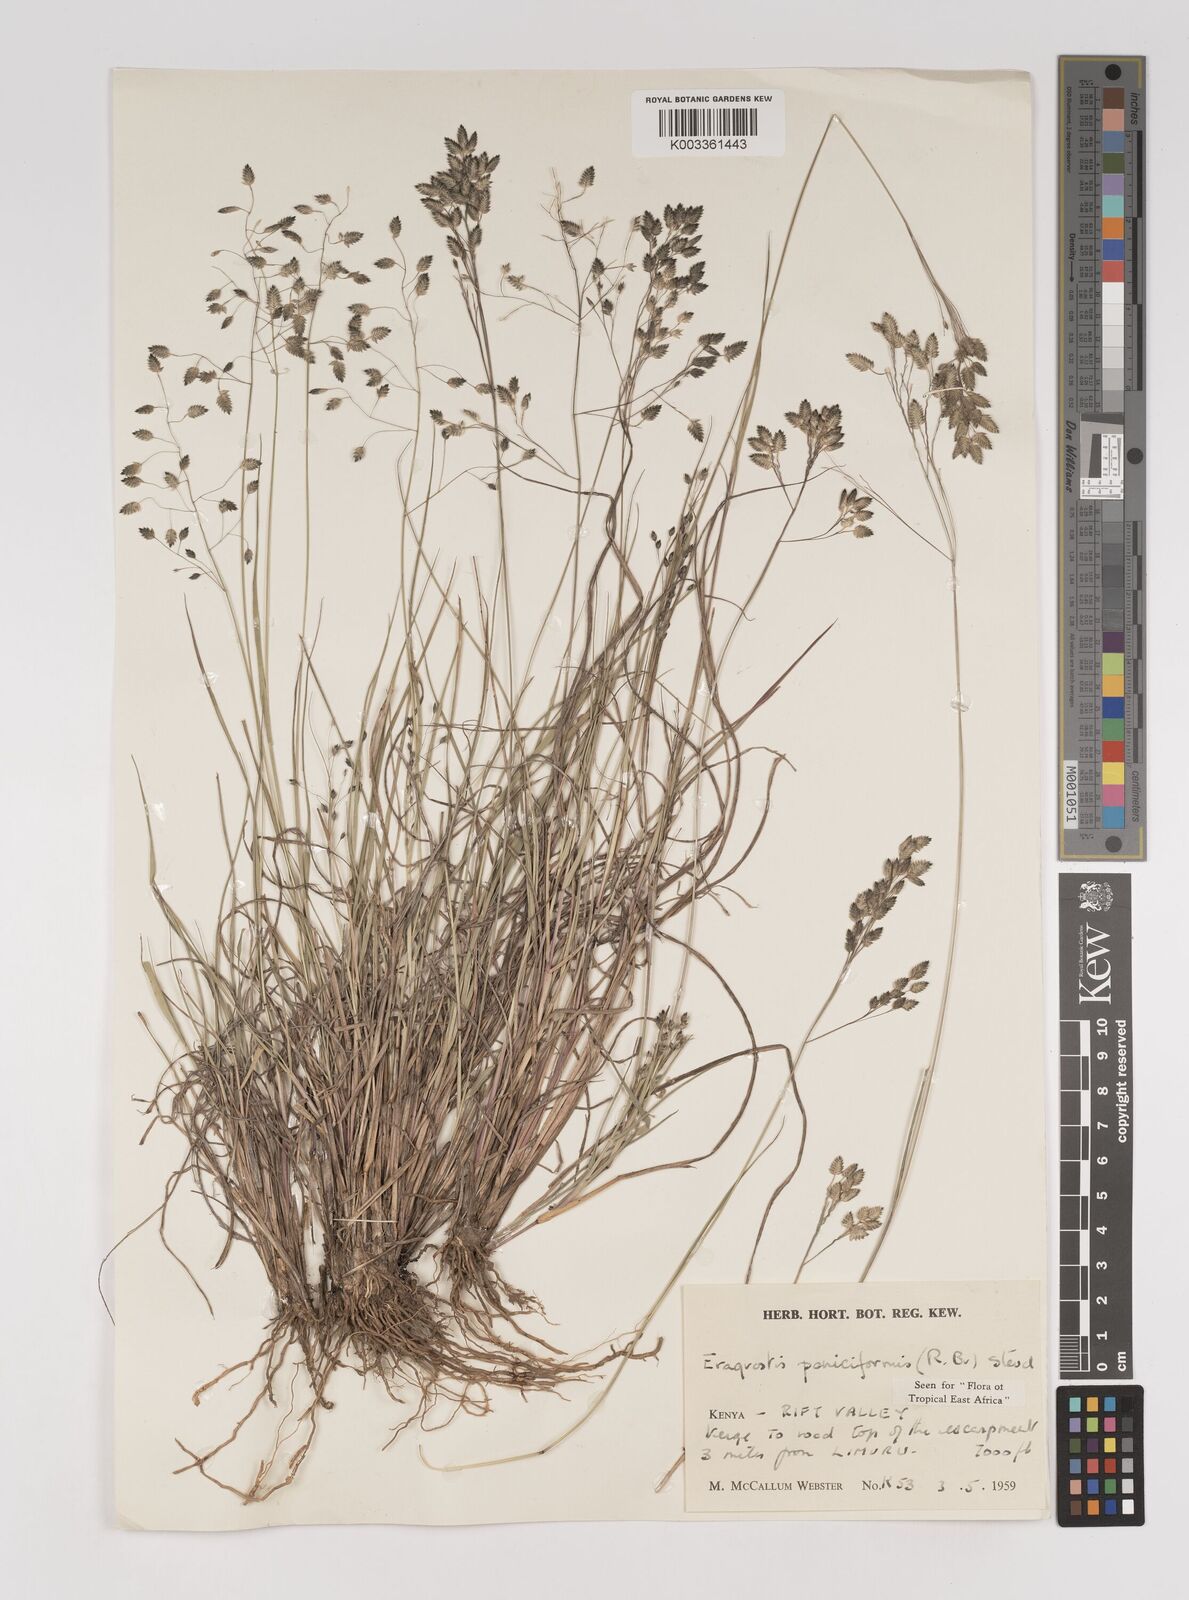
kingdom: Plantae
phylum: Tracheophyta
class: Liliopsida
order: Poales
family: Poaceae
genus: Eragrostis
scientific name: Eragrostis paniciformis
